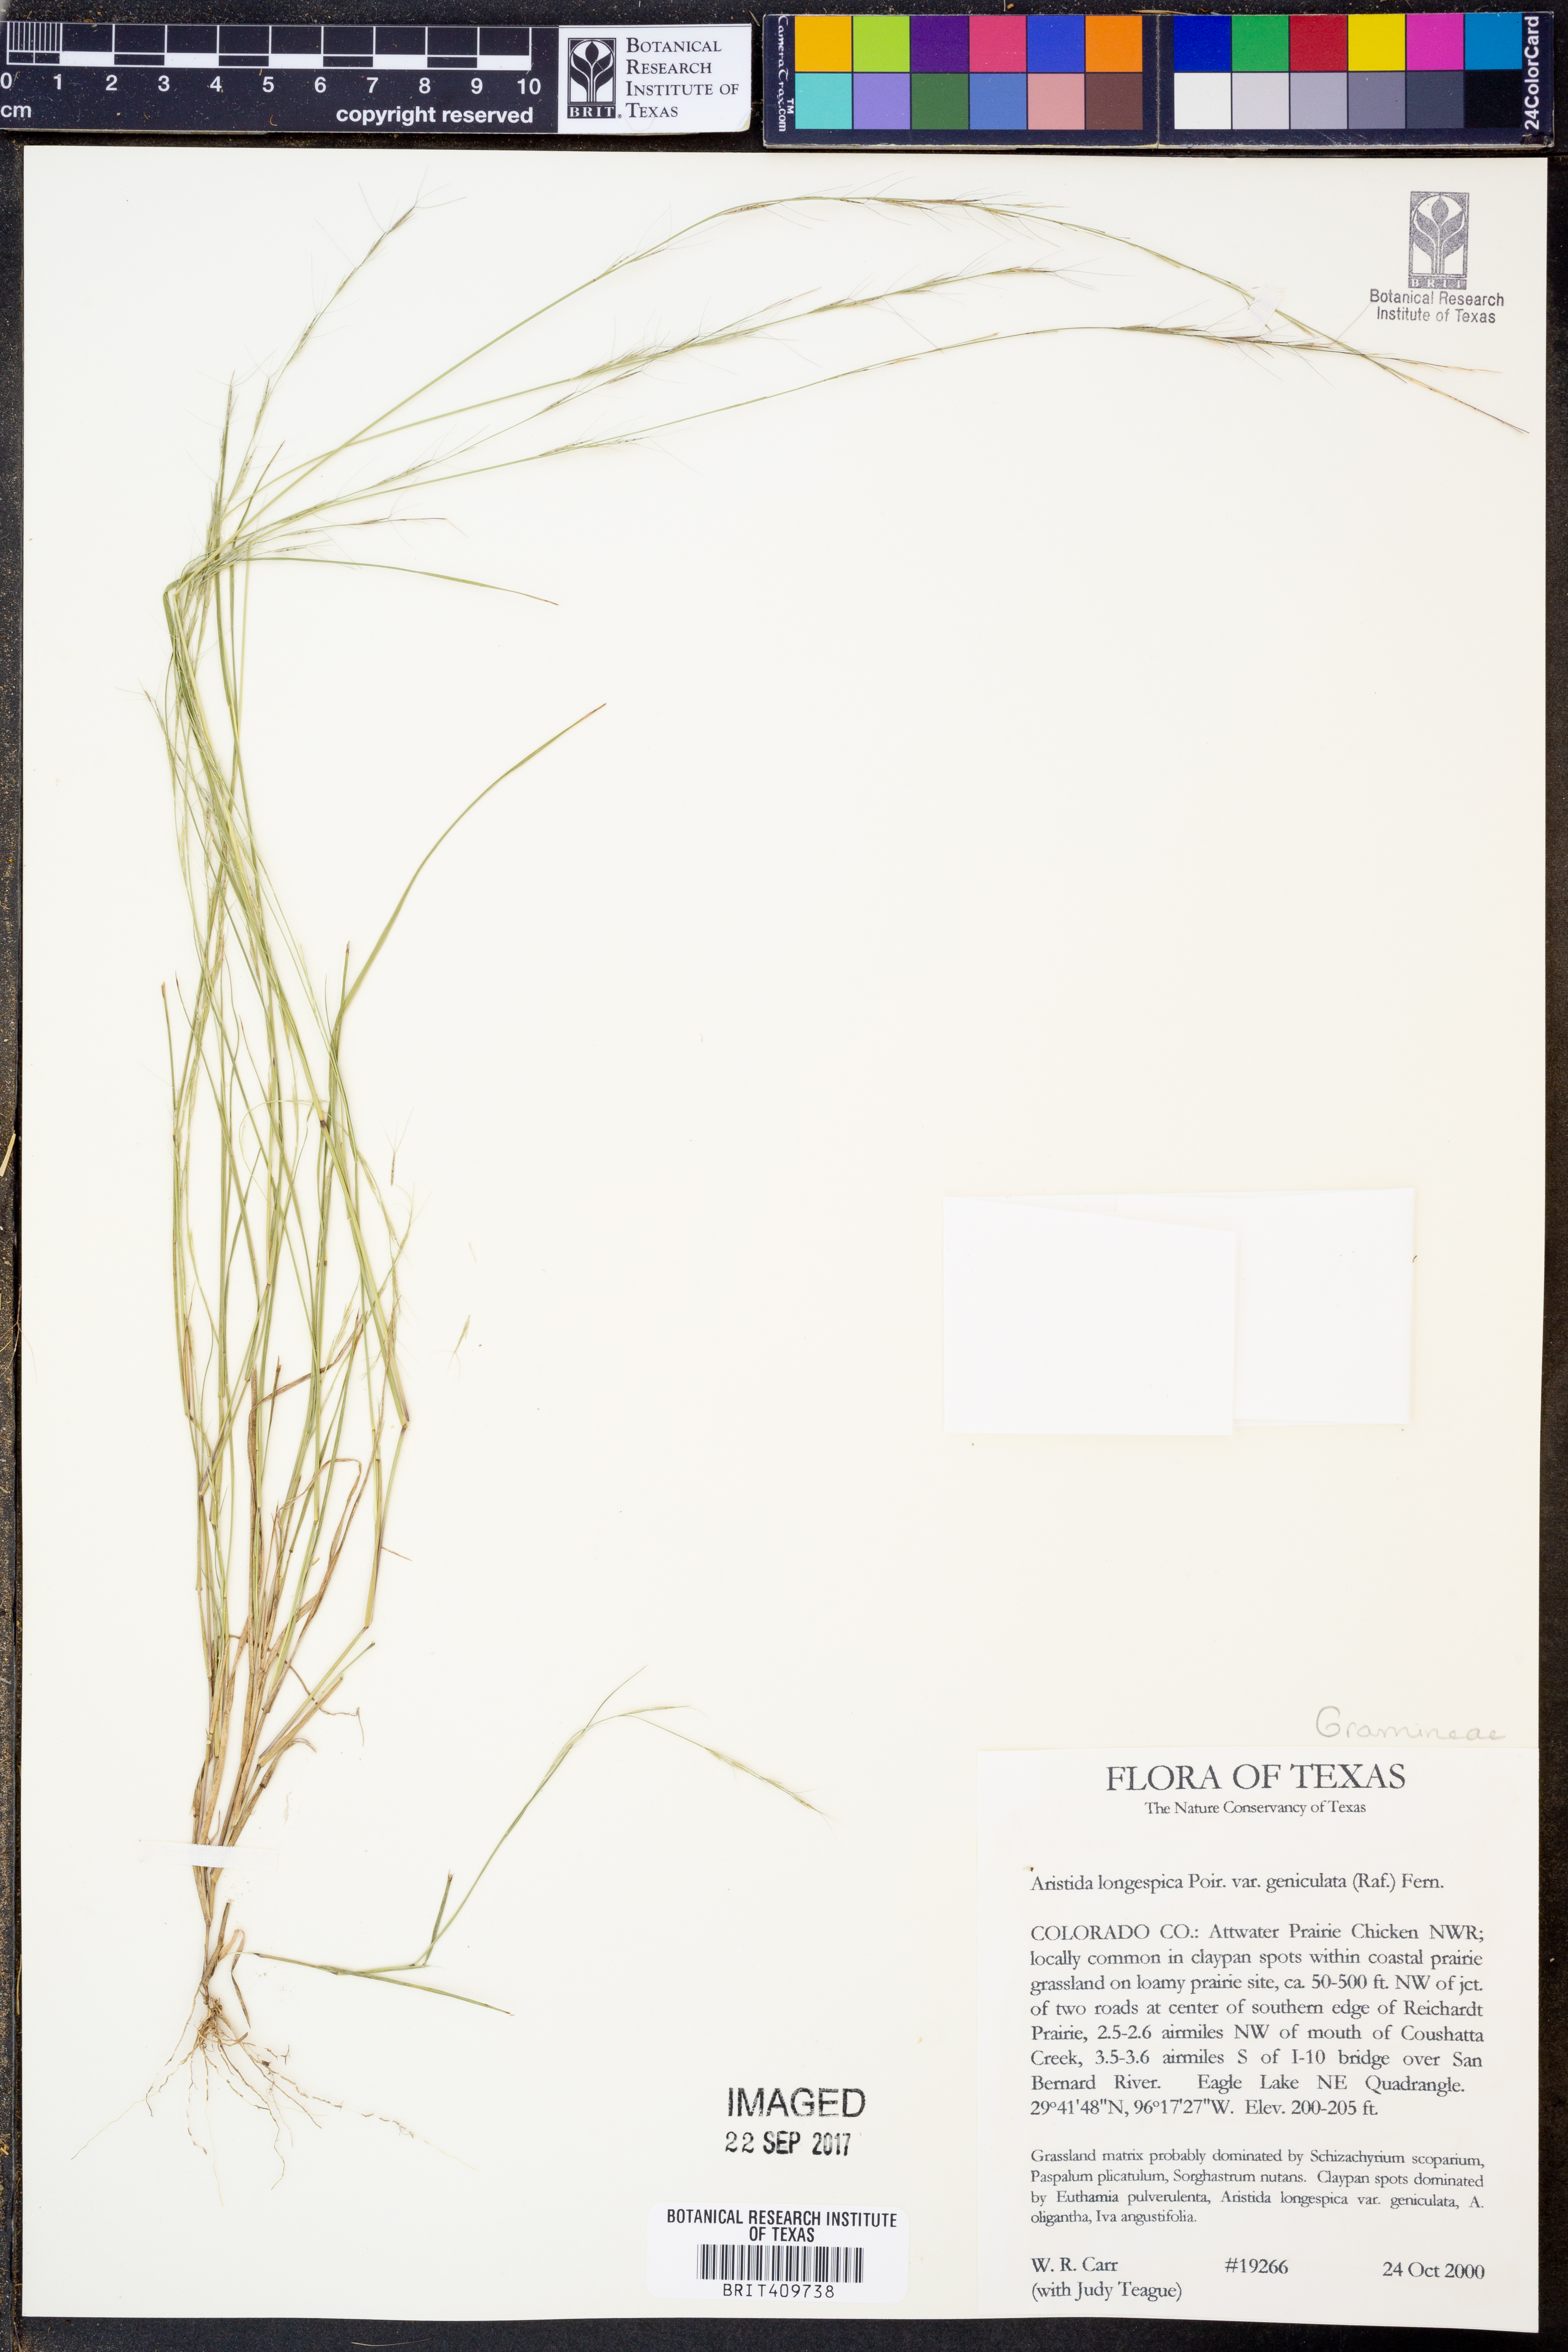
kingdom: Plantae
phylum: Tracheophyta
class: Liliopsida
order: Poales
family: Poaceae
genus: Aristida
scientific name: Aristida longespica
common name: Long-spiked triple-awned grass
